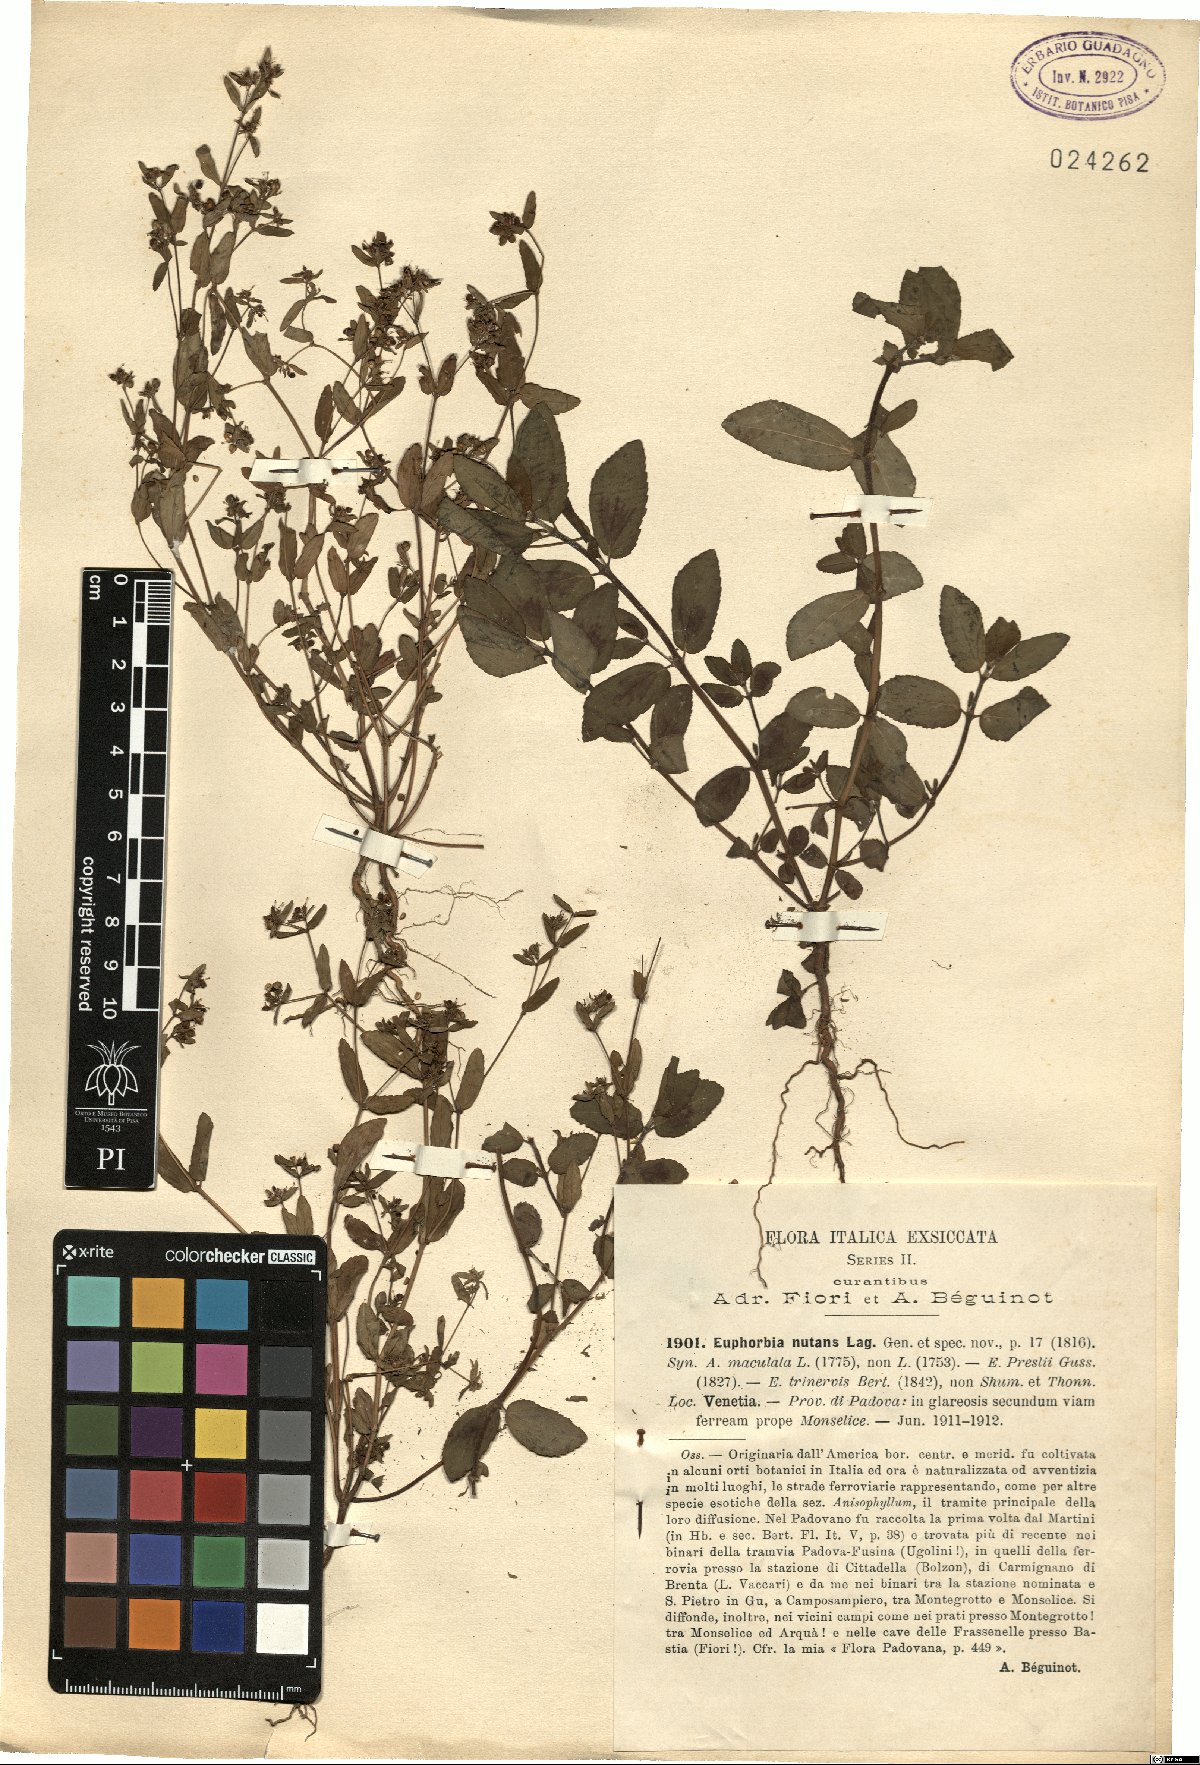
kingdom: Plantae
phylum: Tracheophyta
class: Magnoliopsida
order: Malpighiales
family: Euphorbiaceae
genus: Euphorbia
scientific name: Euphorbia nutans
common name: Eyebane
